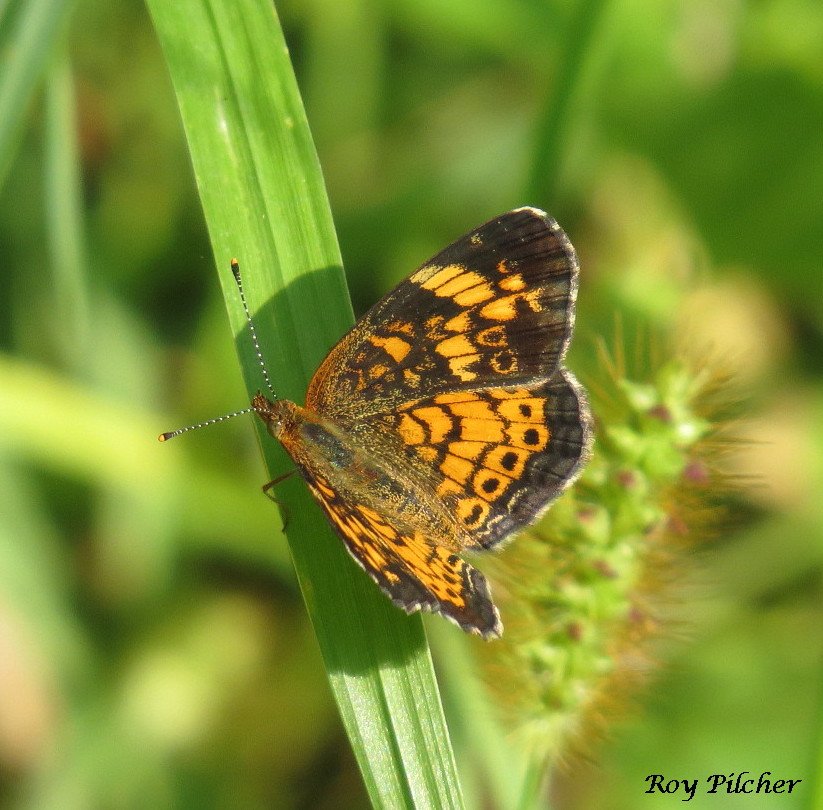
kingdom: Animalia
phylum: Arthropoda
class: Insecta
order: Lepidoptera
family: Nymphalidae
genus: Phyciodes
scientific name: Phyciodes tharos
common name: Pearl Crescent
